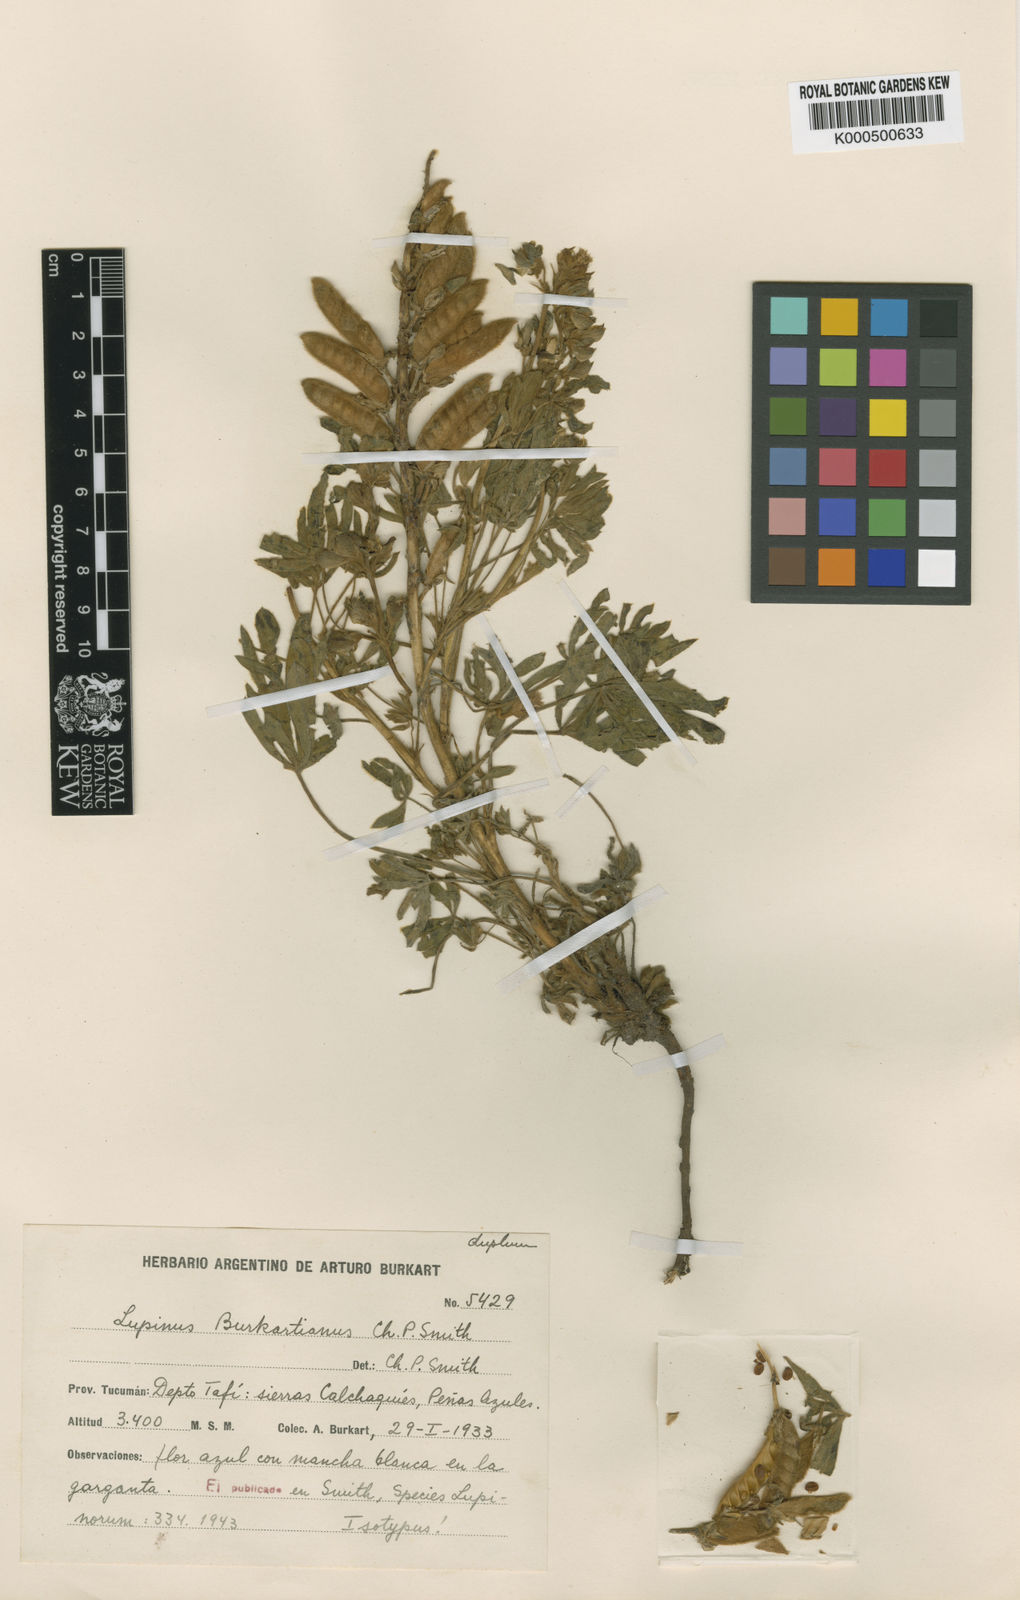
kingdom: Plantae
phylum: Tracheophyta
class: Magnoliopsida
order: Fabales
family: Fabaceae
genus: Lupinus
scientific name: Lupinus burkartianus
